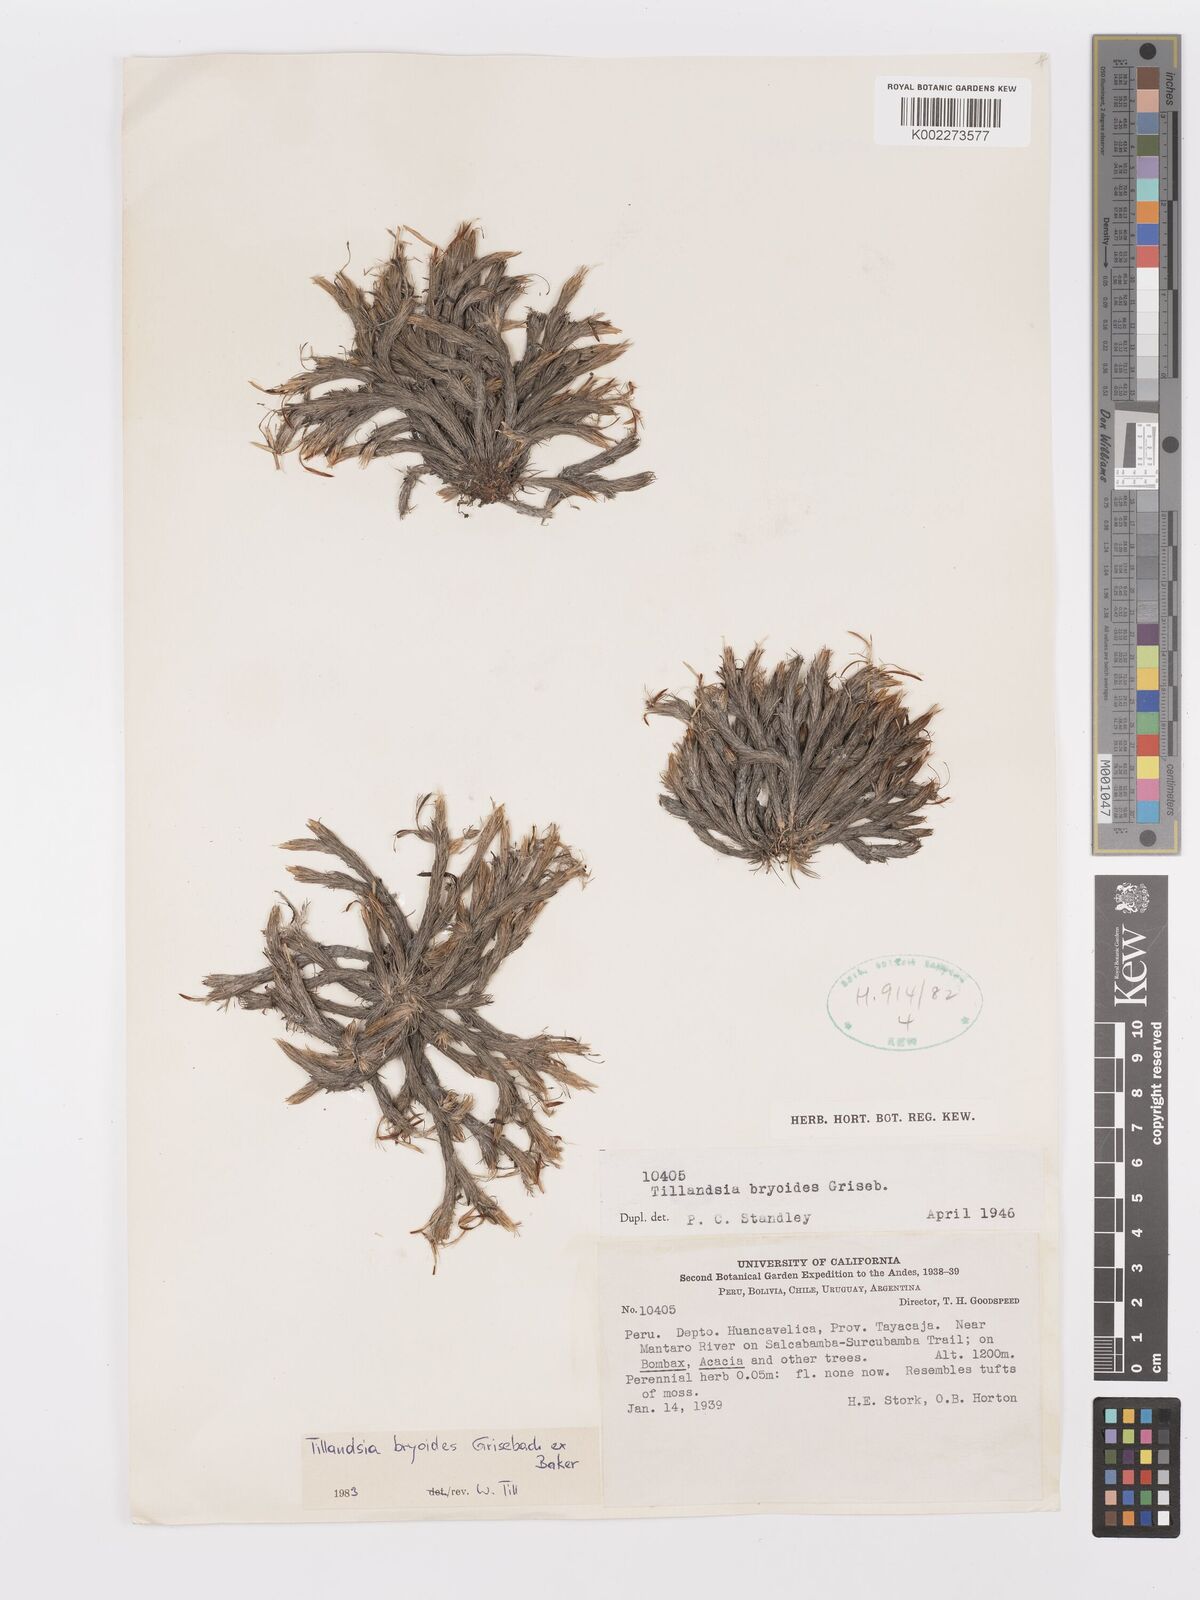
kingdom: Plantae
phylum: Tracheophyta
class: Liliopsida
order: Poales
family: Bromeliaceae
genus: Tillandsia
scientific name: Tillandsia tricholepis
